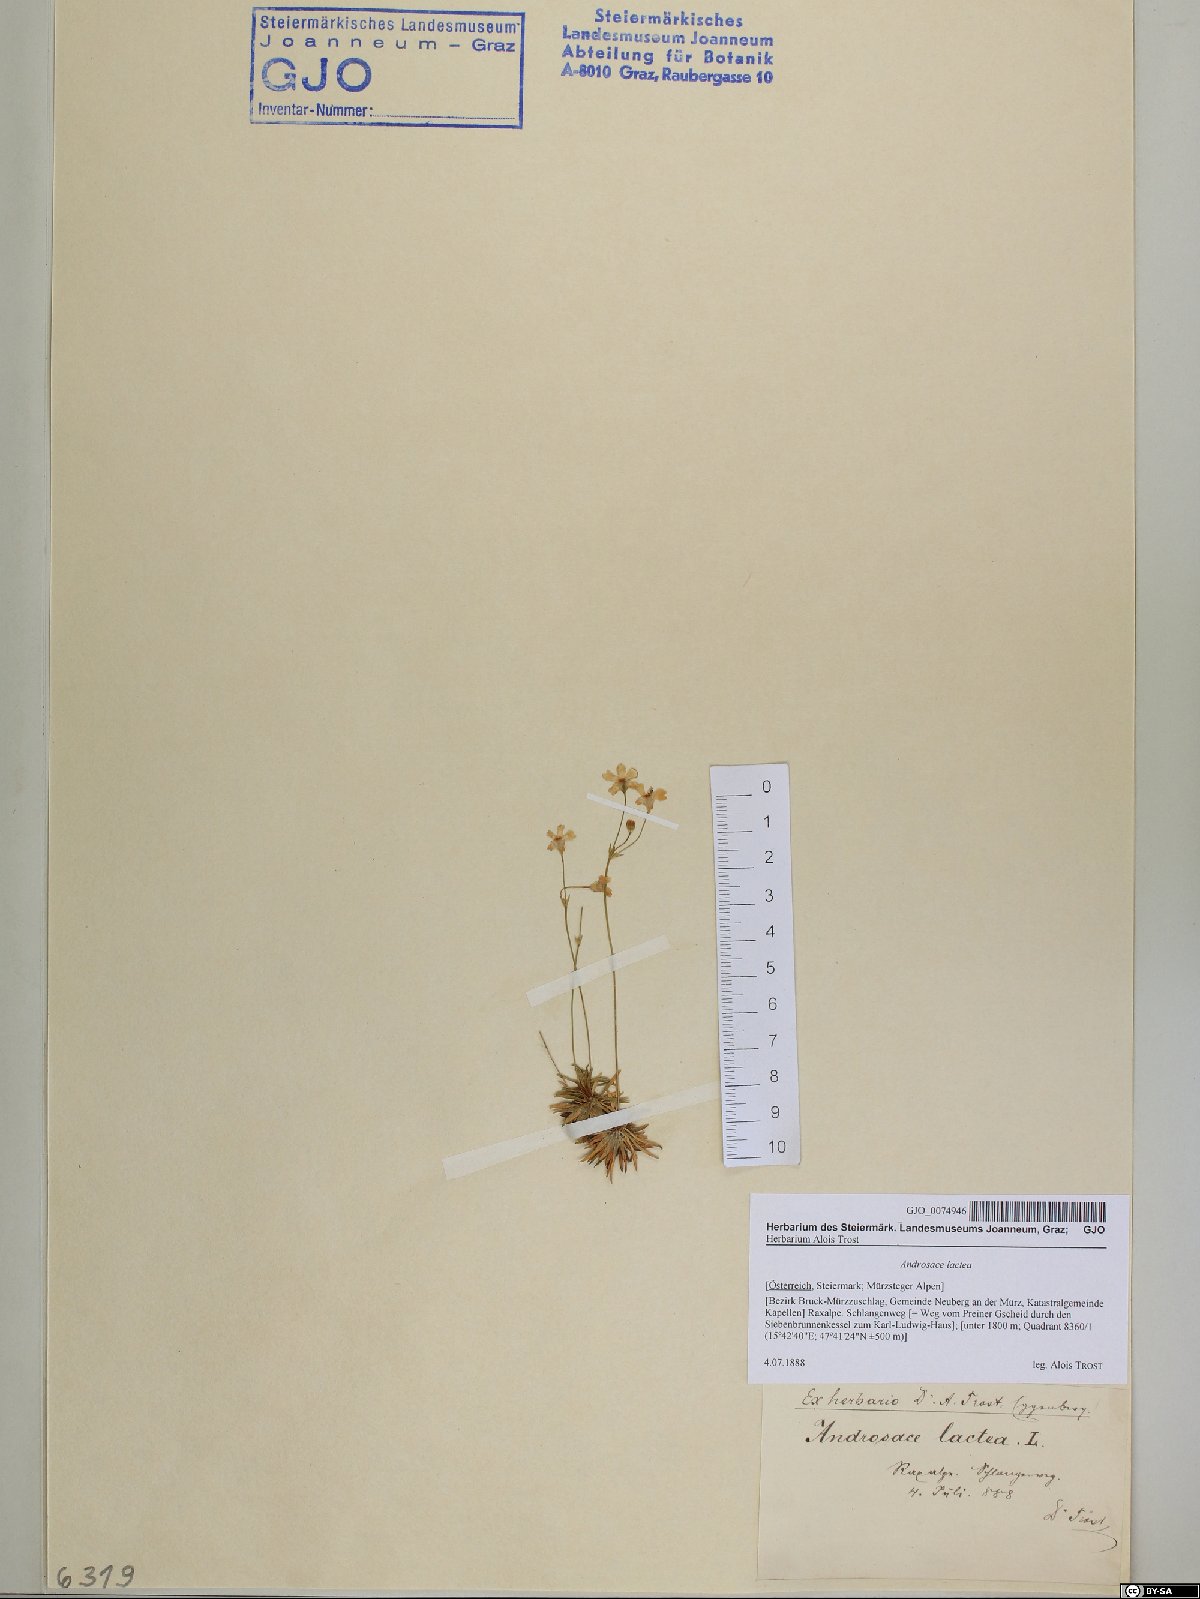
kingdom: Plantae
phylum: Tracheophyta
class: Magnoliopsida
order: Ericales
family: Primulaceae
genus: Androsace
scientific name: Androsace lactea
